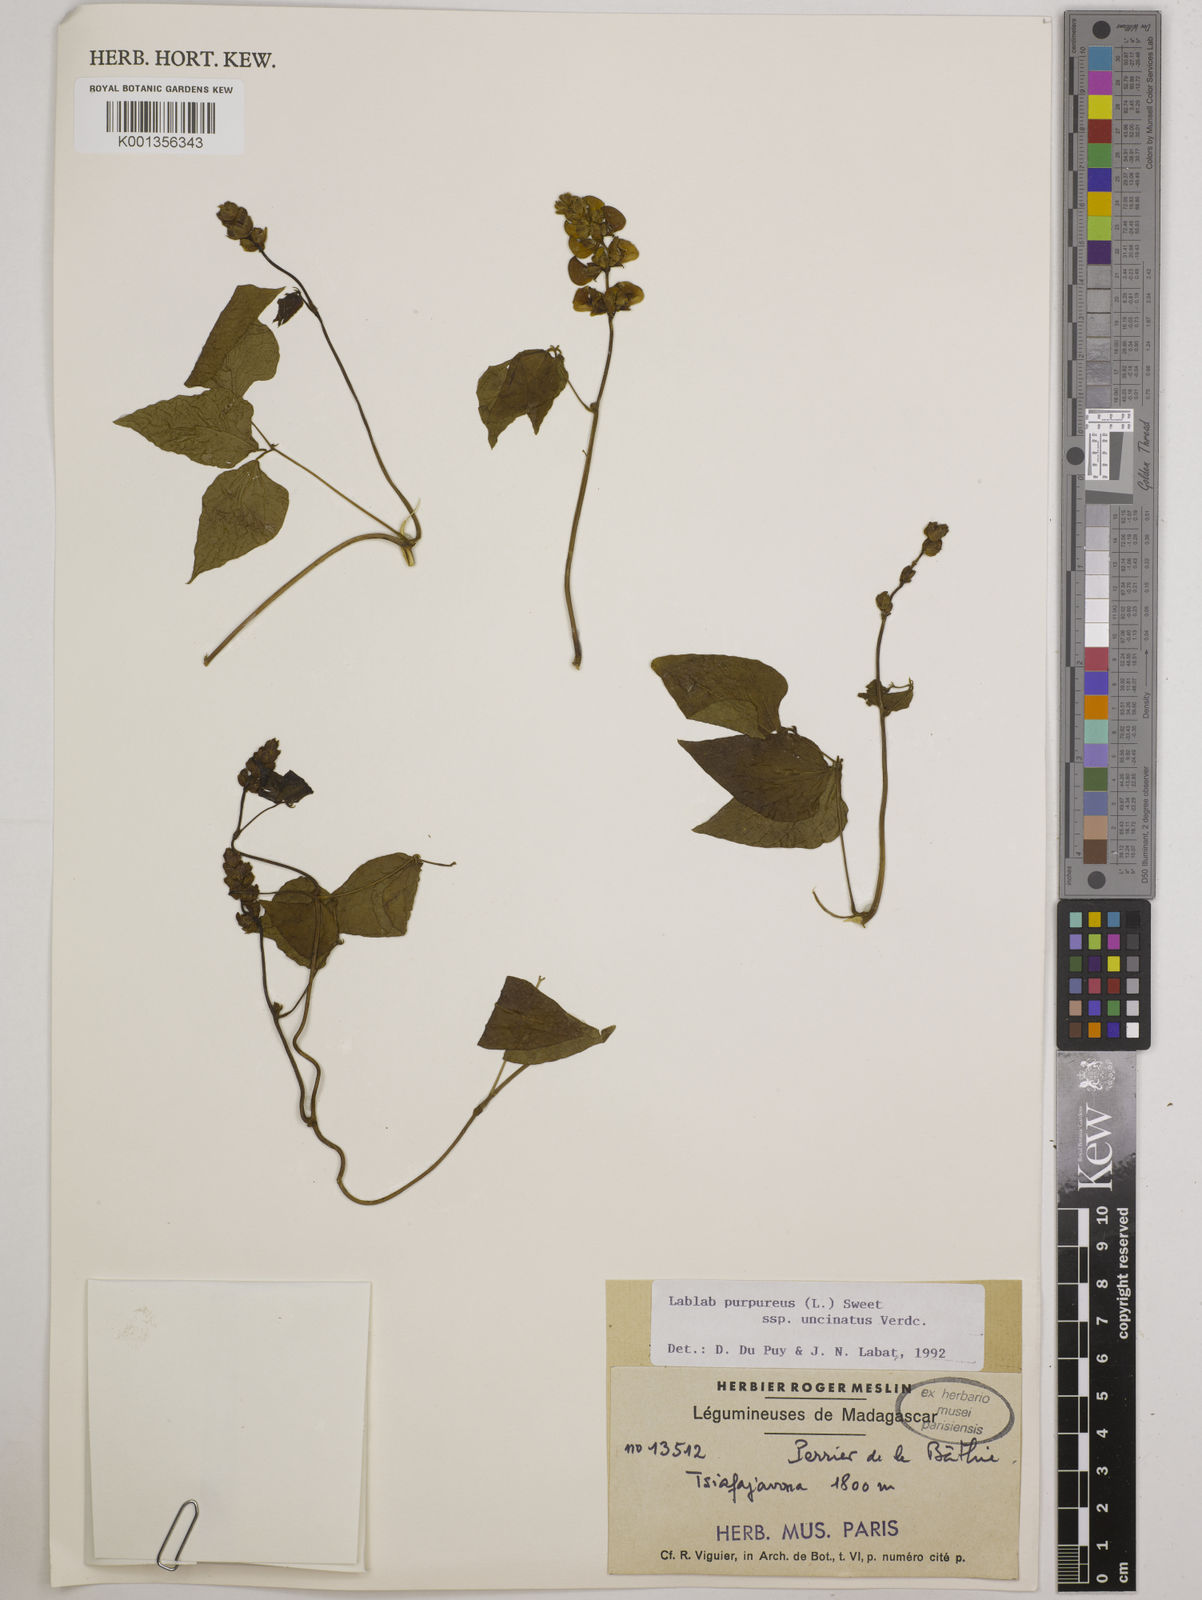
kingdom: Plantae
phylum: Tracheophyta
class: Magnoliopsida
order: Fabales
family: Fabaceae
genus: Lablab
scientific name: Lablab purpureus
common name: Lablab-bean
